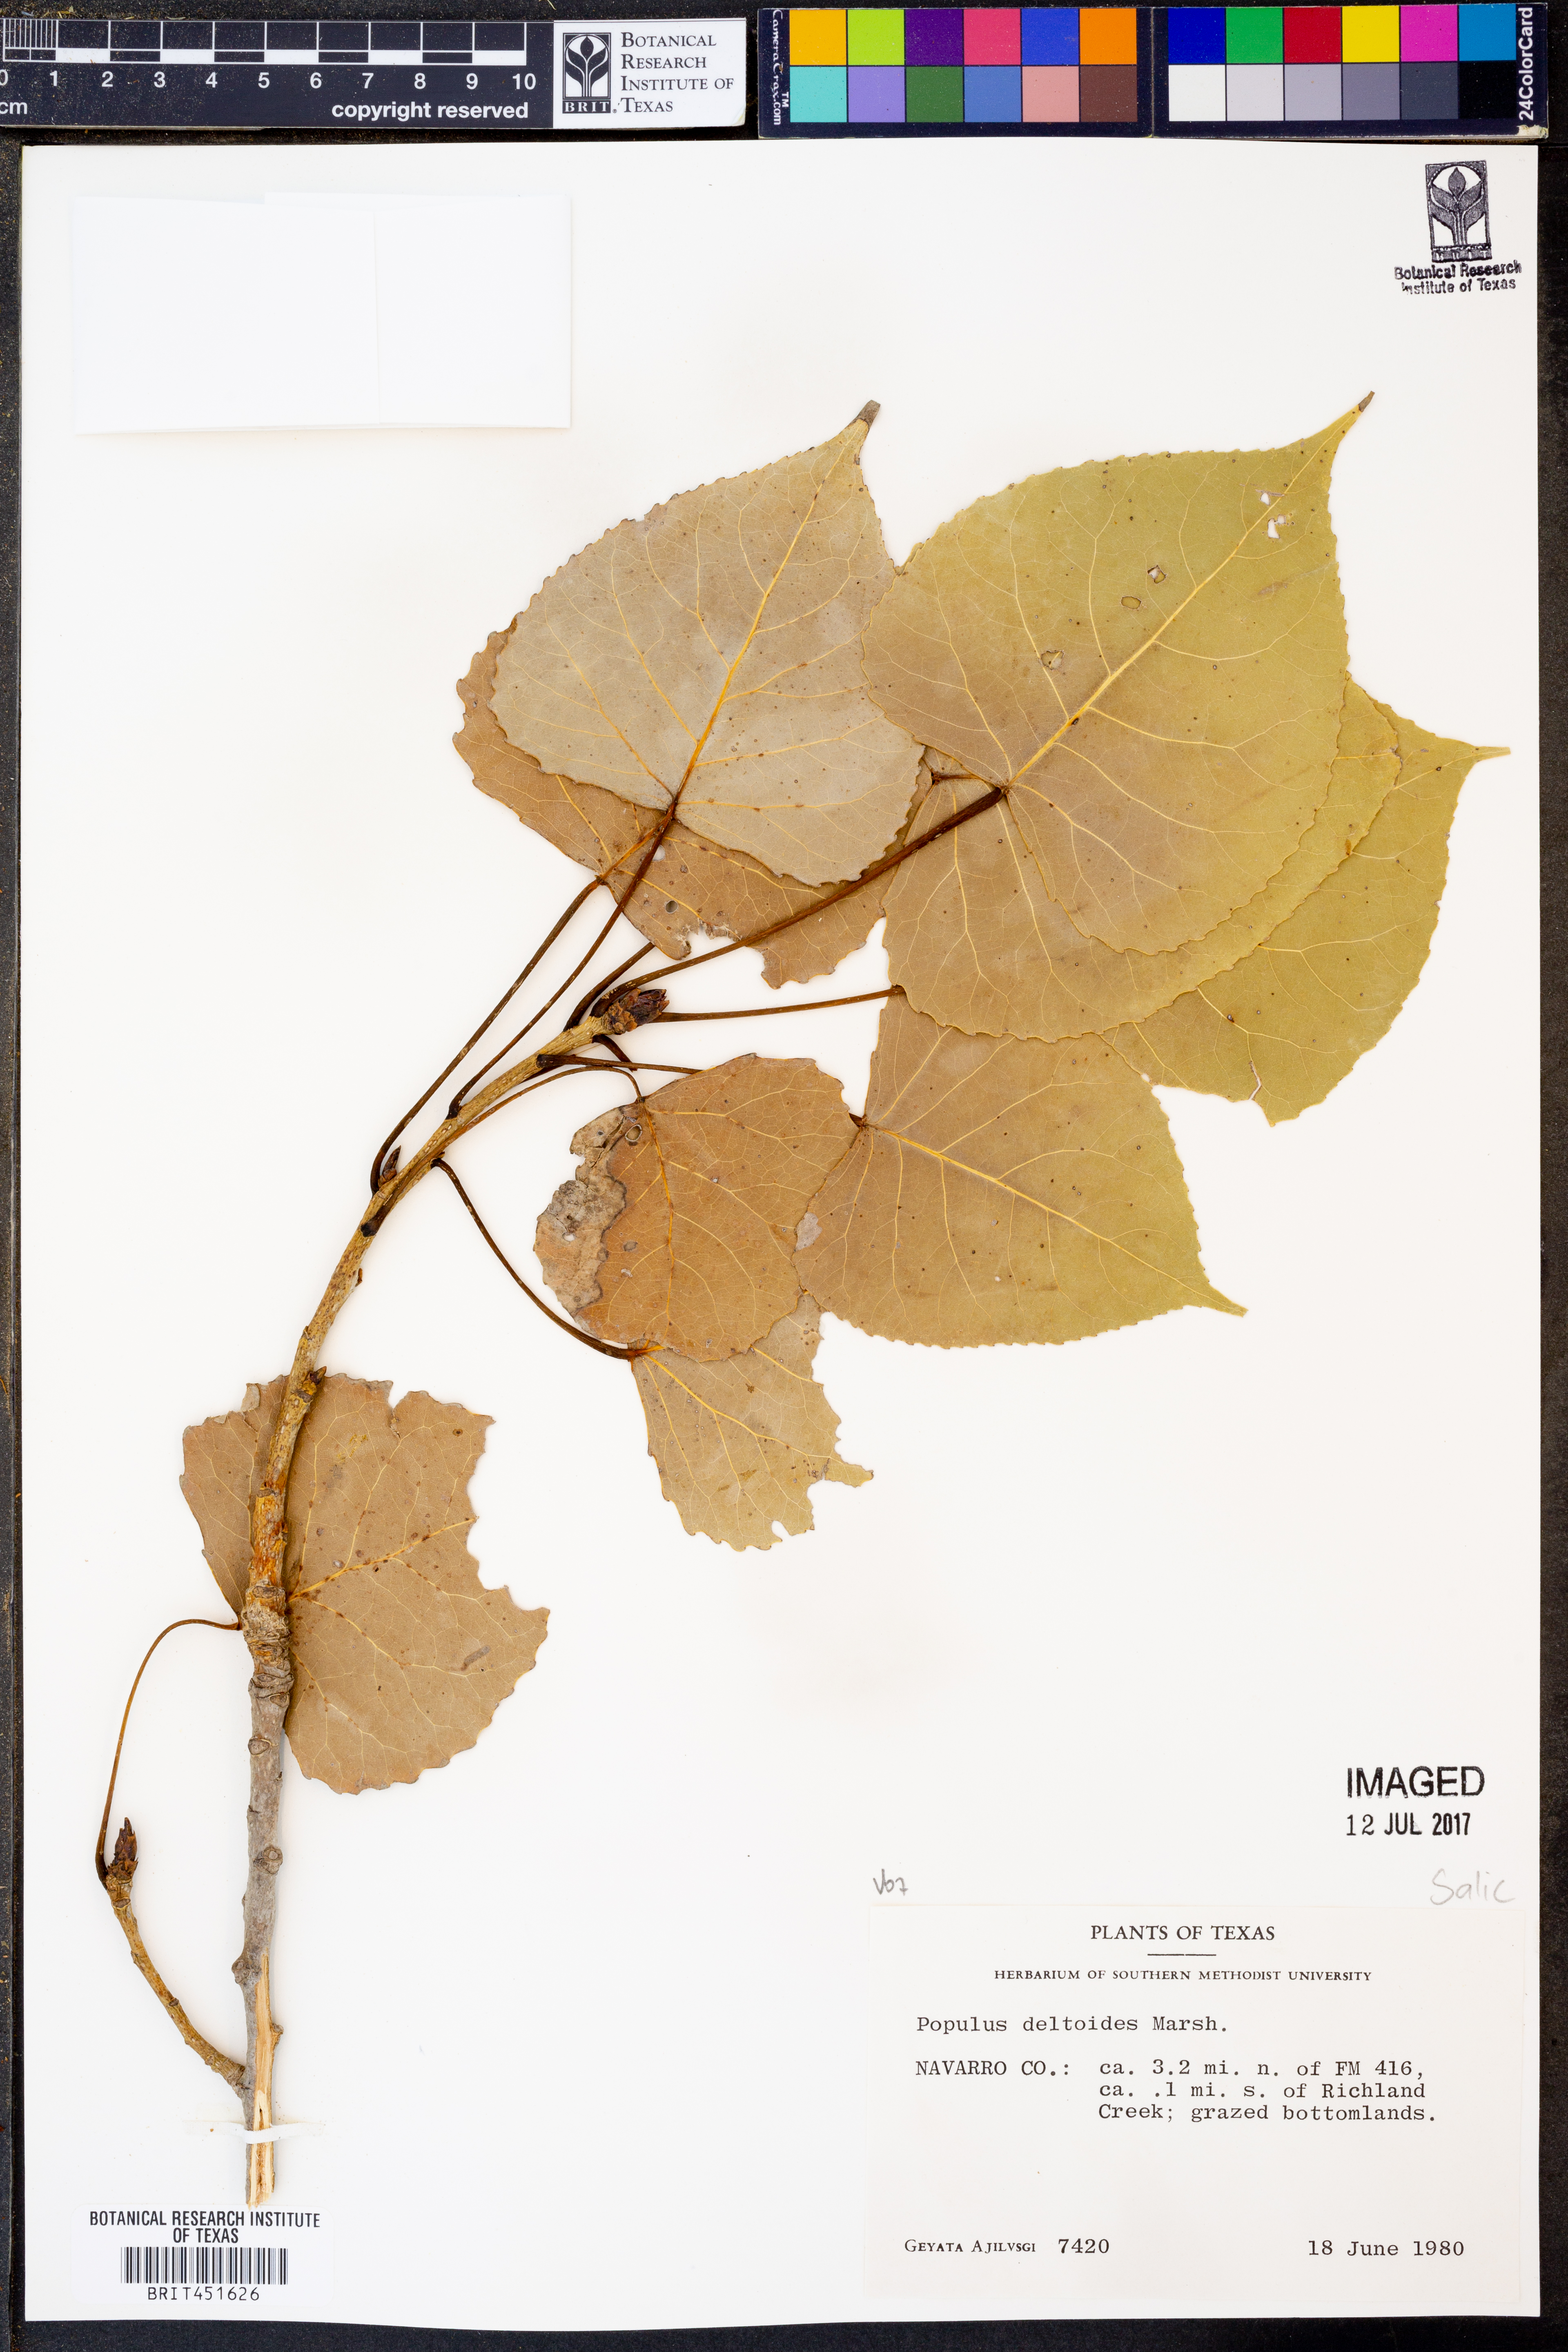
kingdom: Plantae
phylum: Tracheophyta
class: Magnoliopsida
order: Malpighiales
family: Salicaceae
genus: Populus
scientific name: Populus deltoides
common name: Eastern cottonwood
